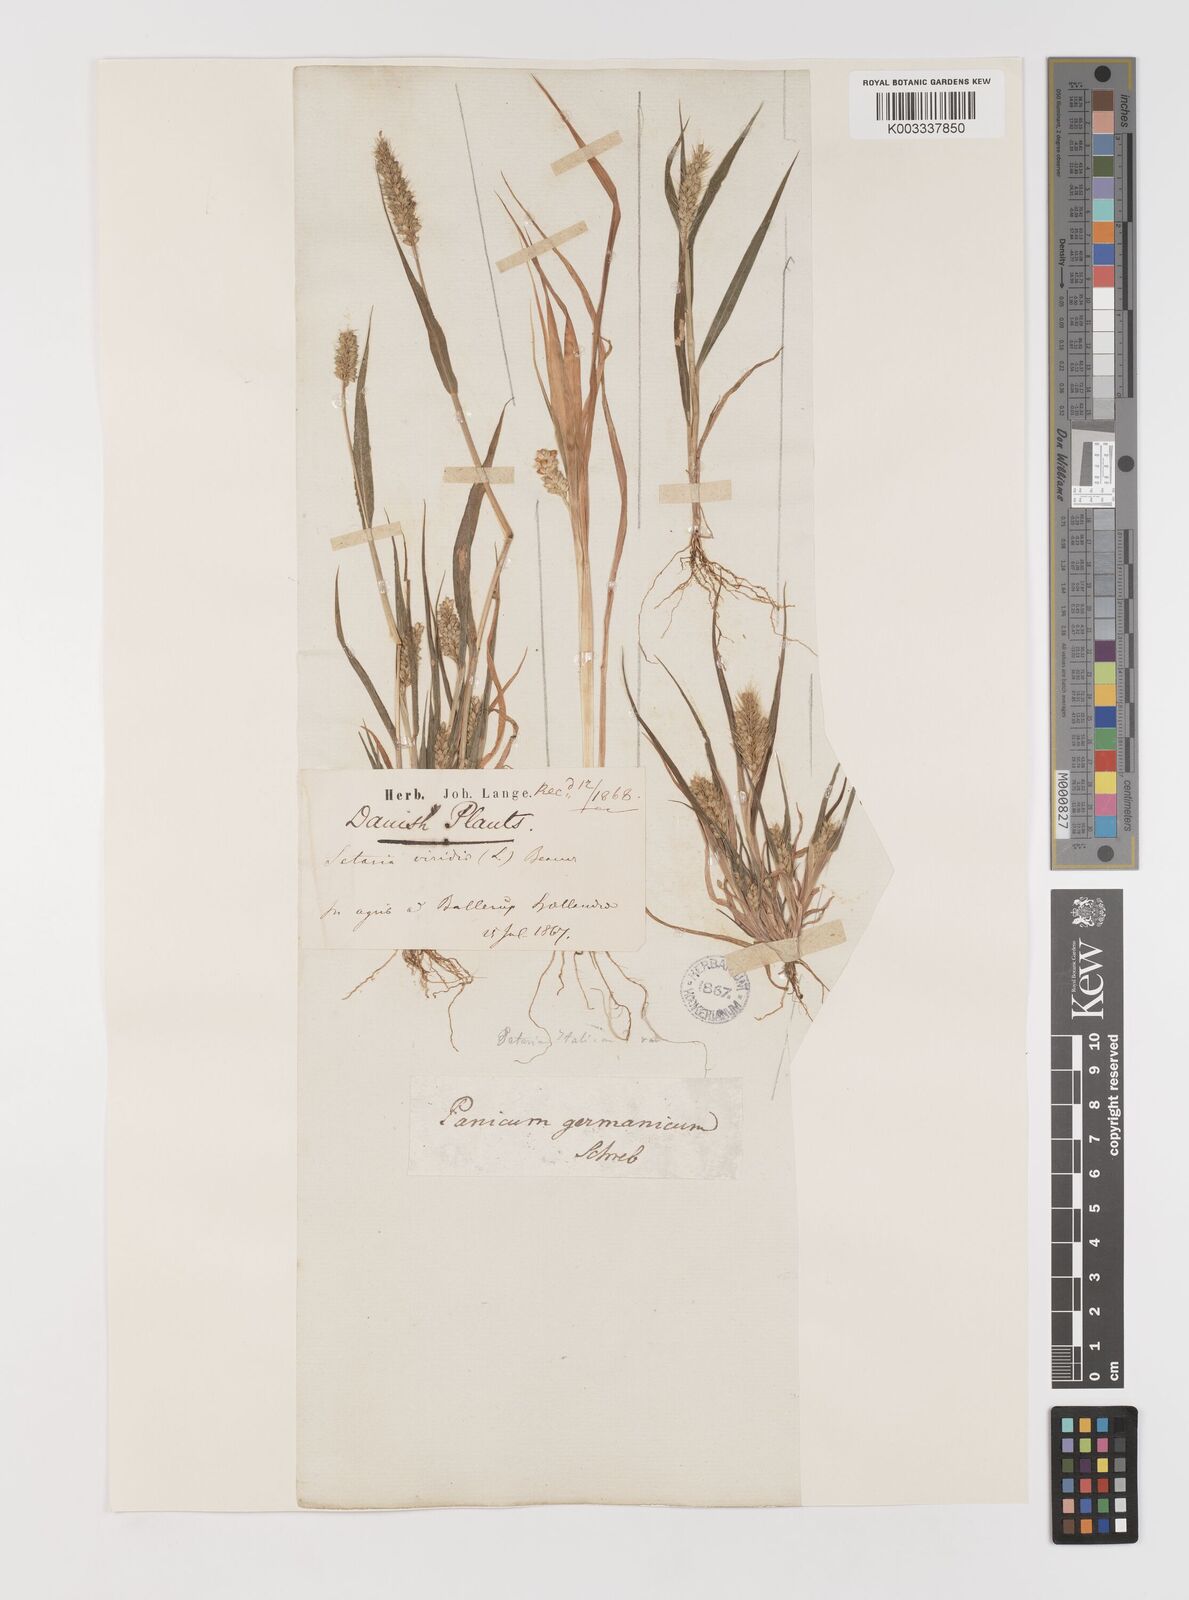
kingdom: Plantae
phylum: Tracheophyta
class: Liliopsida
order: Poales
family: Poaceae
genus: Setaria
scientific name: Setaria viridis
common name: Green bristlegrass
